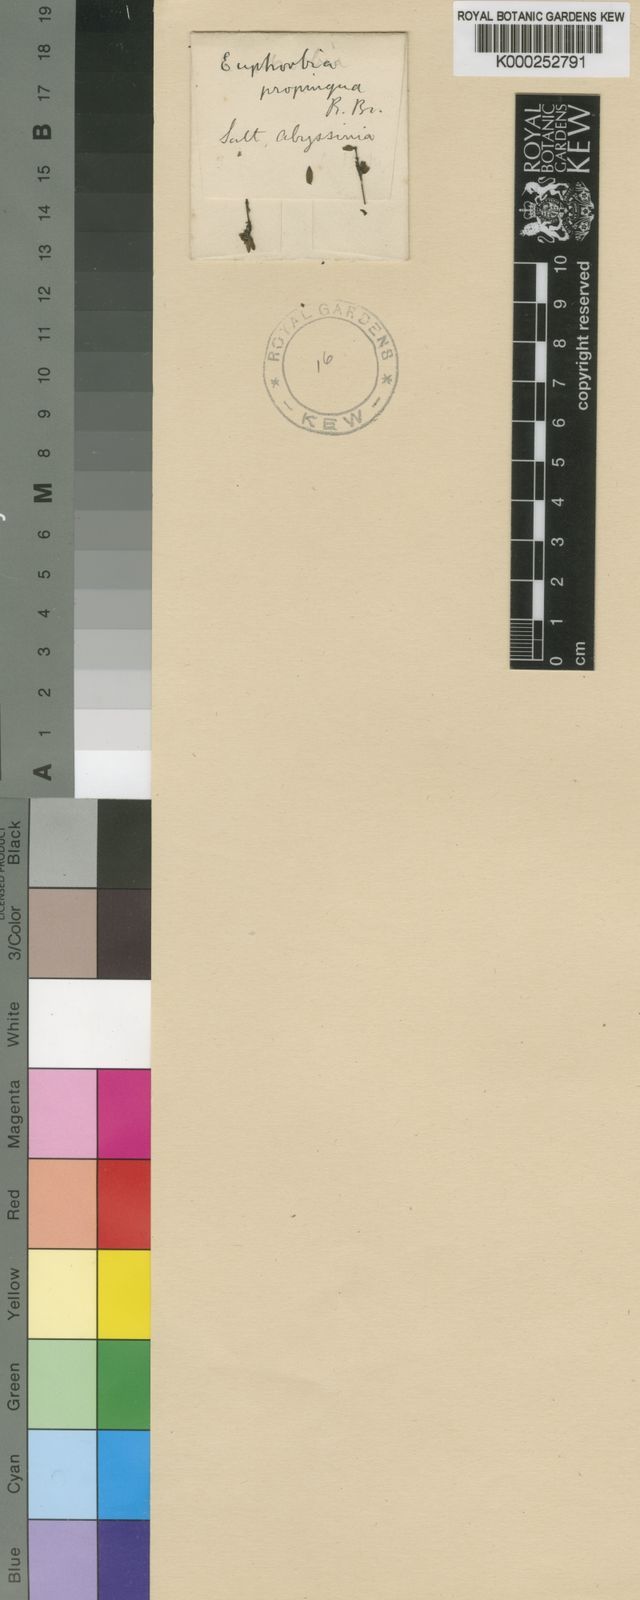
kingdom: Plantae
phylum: Tracheophyta
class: Magnoliopsida
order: Malpighiales
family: Euphorbiaceae
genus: Euphorbia
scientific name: Euphorbia
